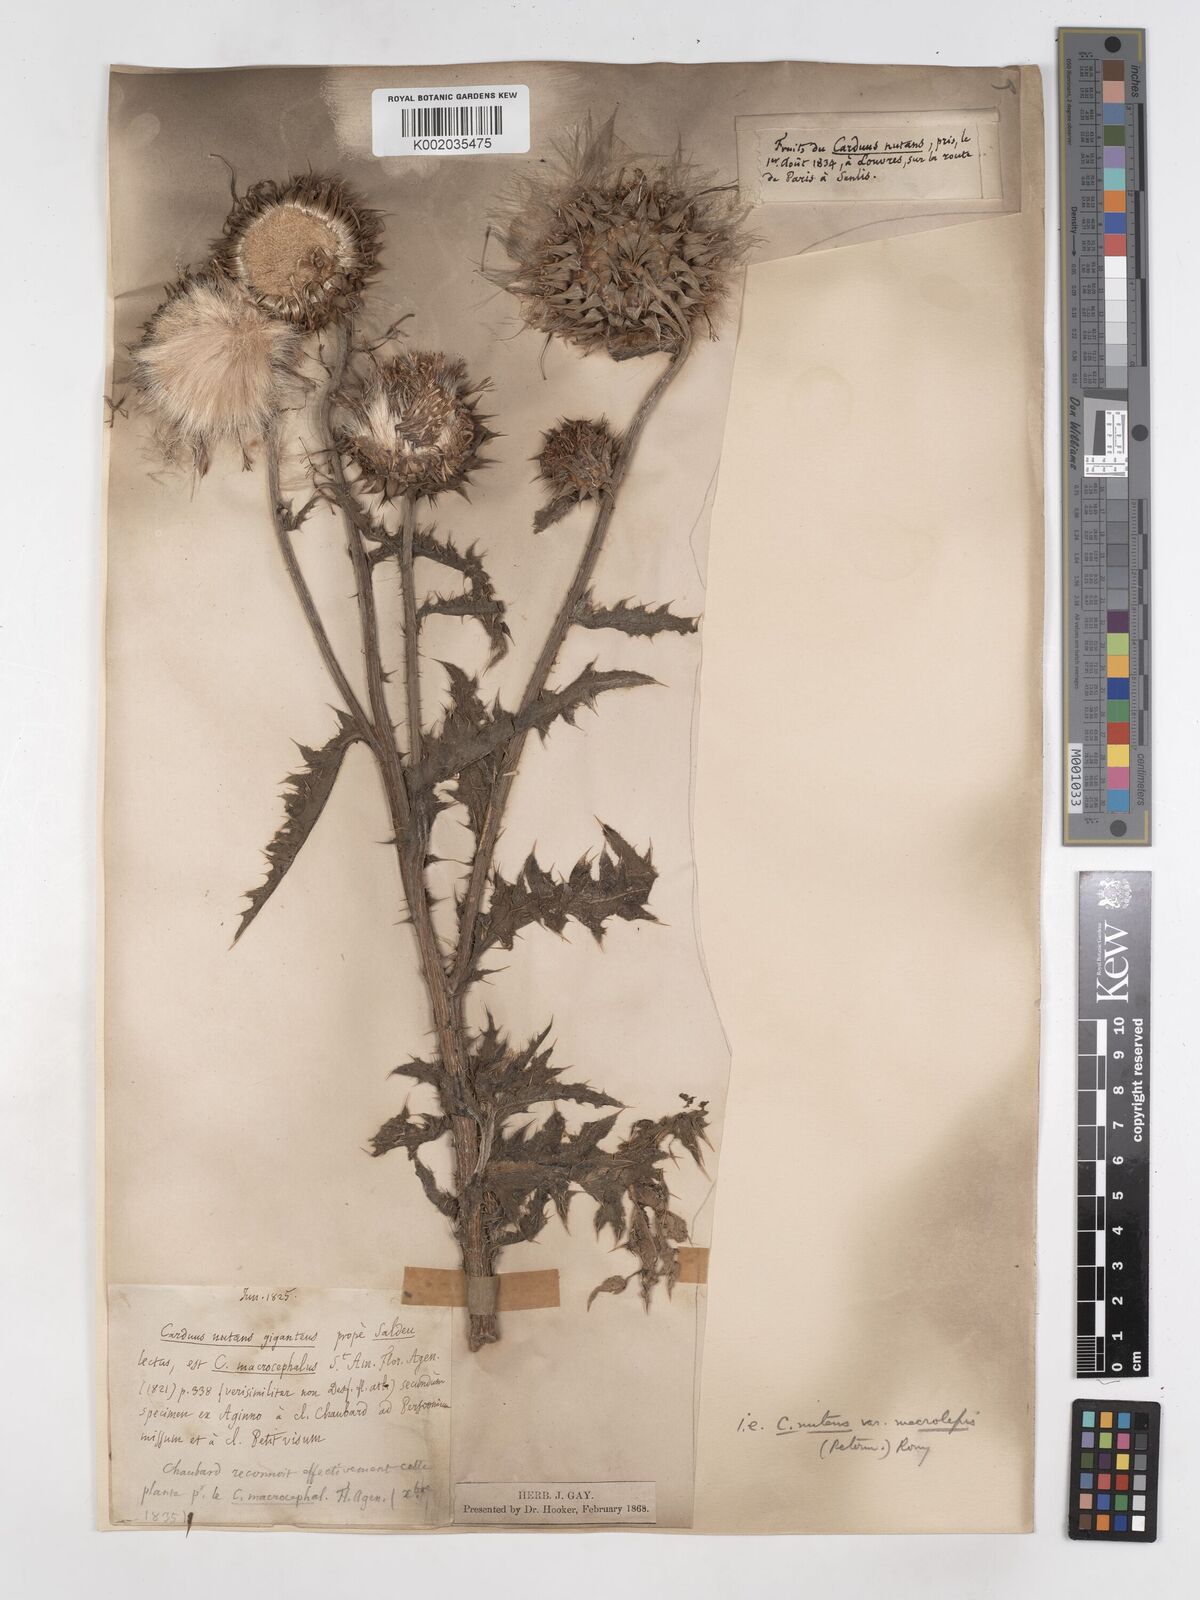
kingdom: Plantae
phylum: Tracheophyta
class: Magnoliopsida
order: Asterales
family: Asteraceae
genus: Carduus
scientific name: Carduus macrocephalus
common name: Giant thistle
